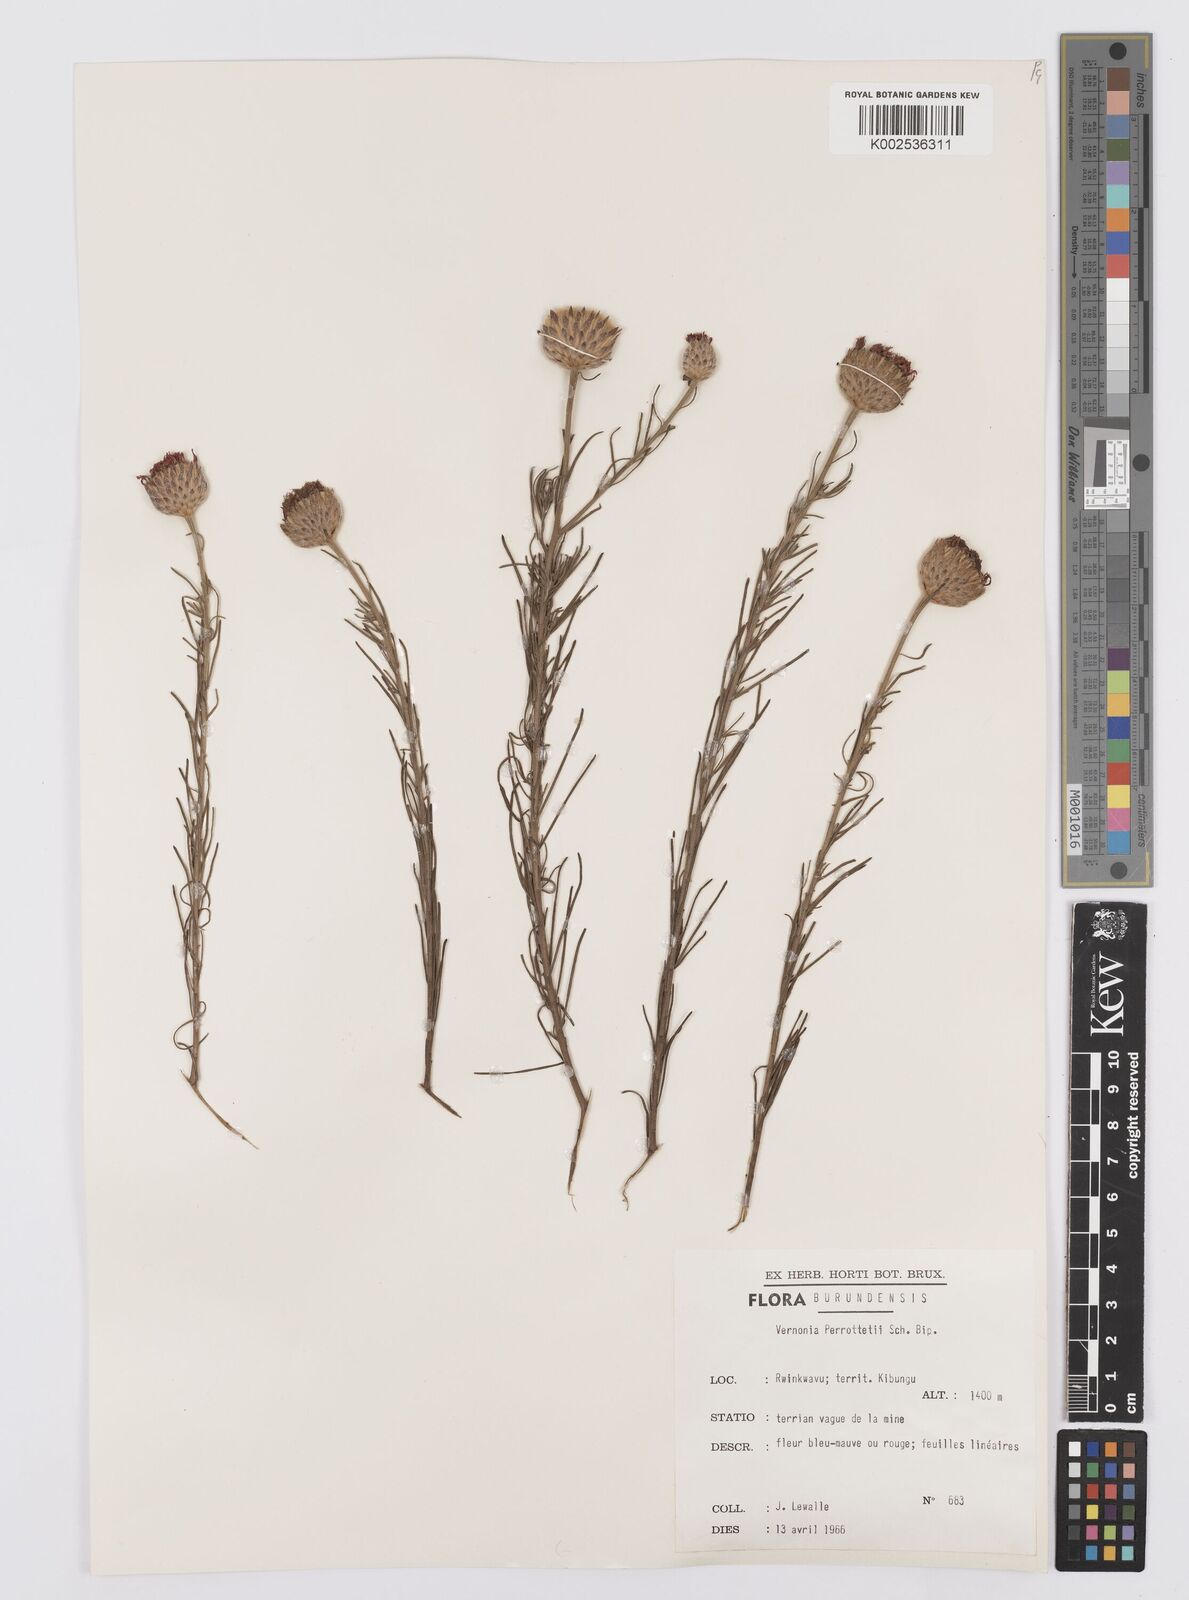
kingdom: Plantae
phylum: Tracheophyta
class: Magnoliopsida
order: Asterales
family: Asteraceae
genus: Crystallopollen
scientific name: Crystallopollen serratuloides
